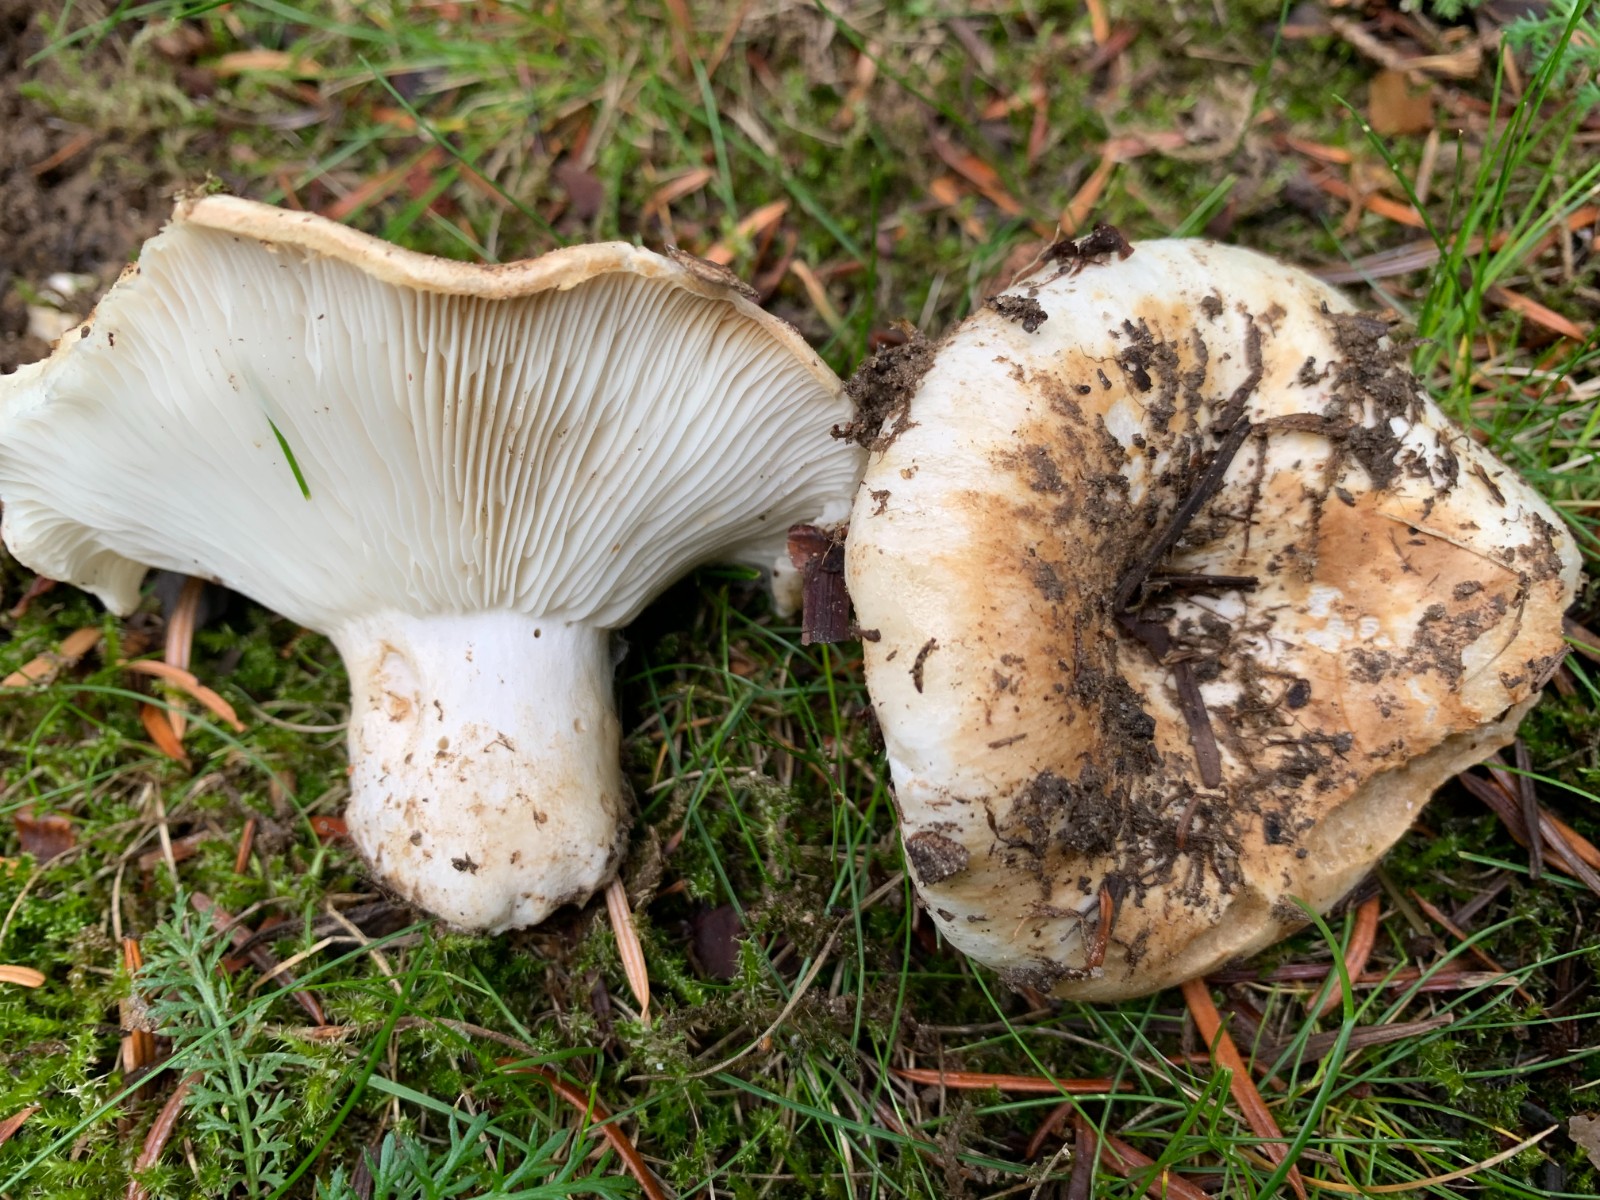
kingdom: Fungi
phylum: Basidiomycota
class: Agaricomycetes
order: Russulales
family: Russulaceae
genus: Russula
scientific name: Russula
